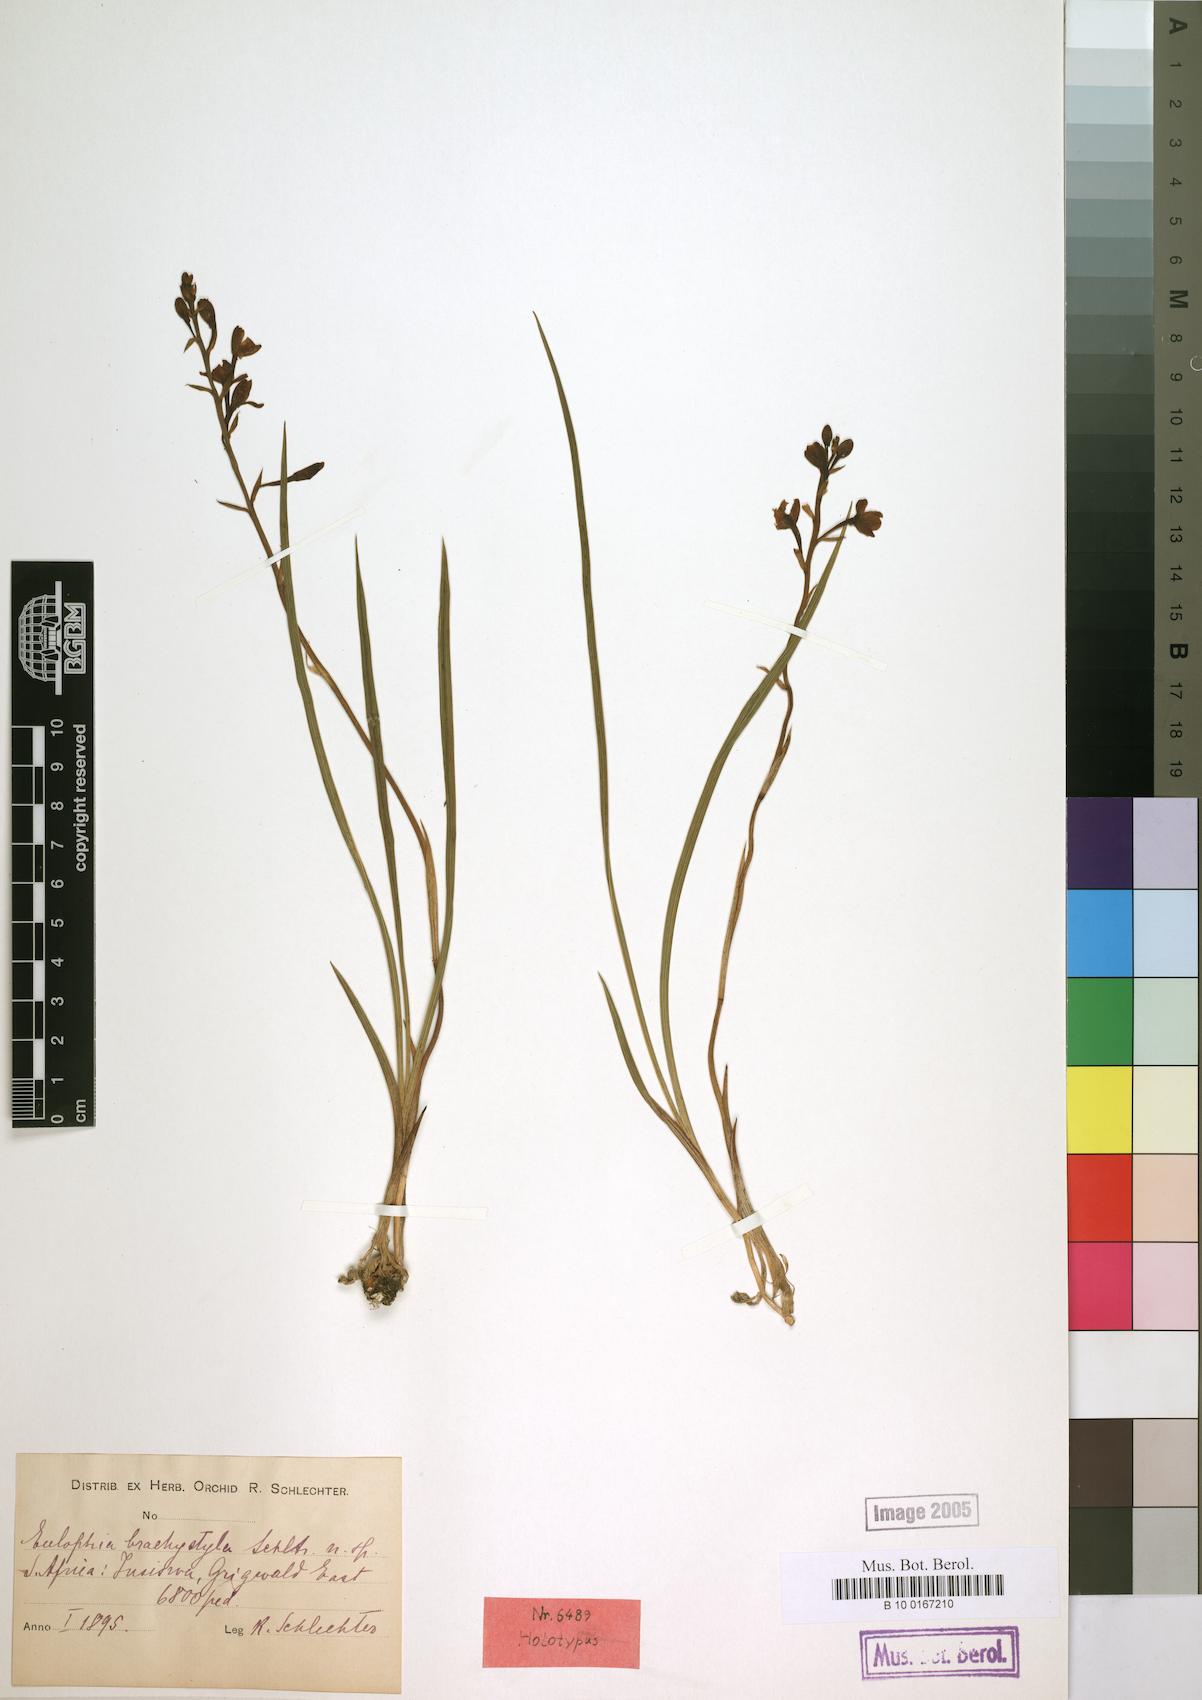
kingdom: Plantae
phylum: Tracheophyta
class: Liliopsida
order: Asparagales
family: Orchidaceae
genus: Eulophia
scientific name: Eulophia zeyheriana
